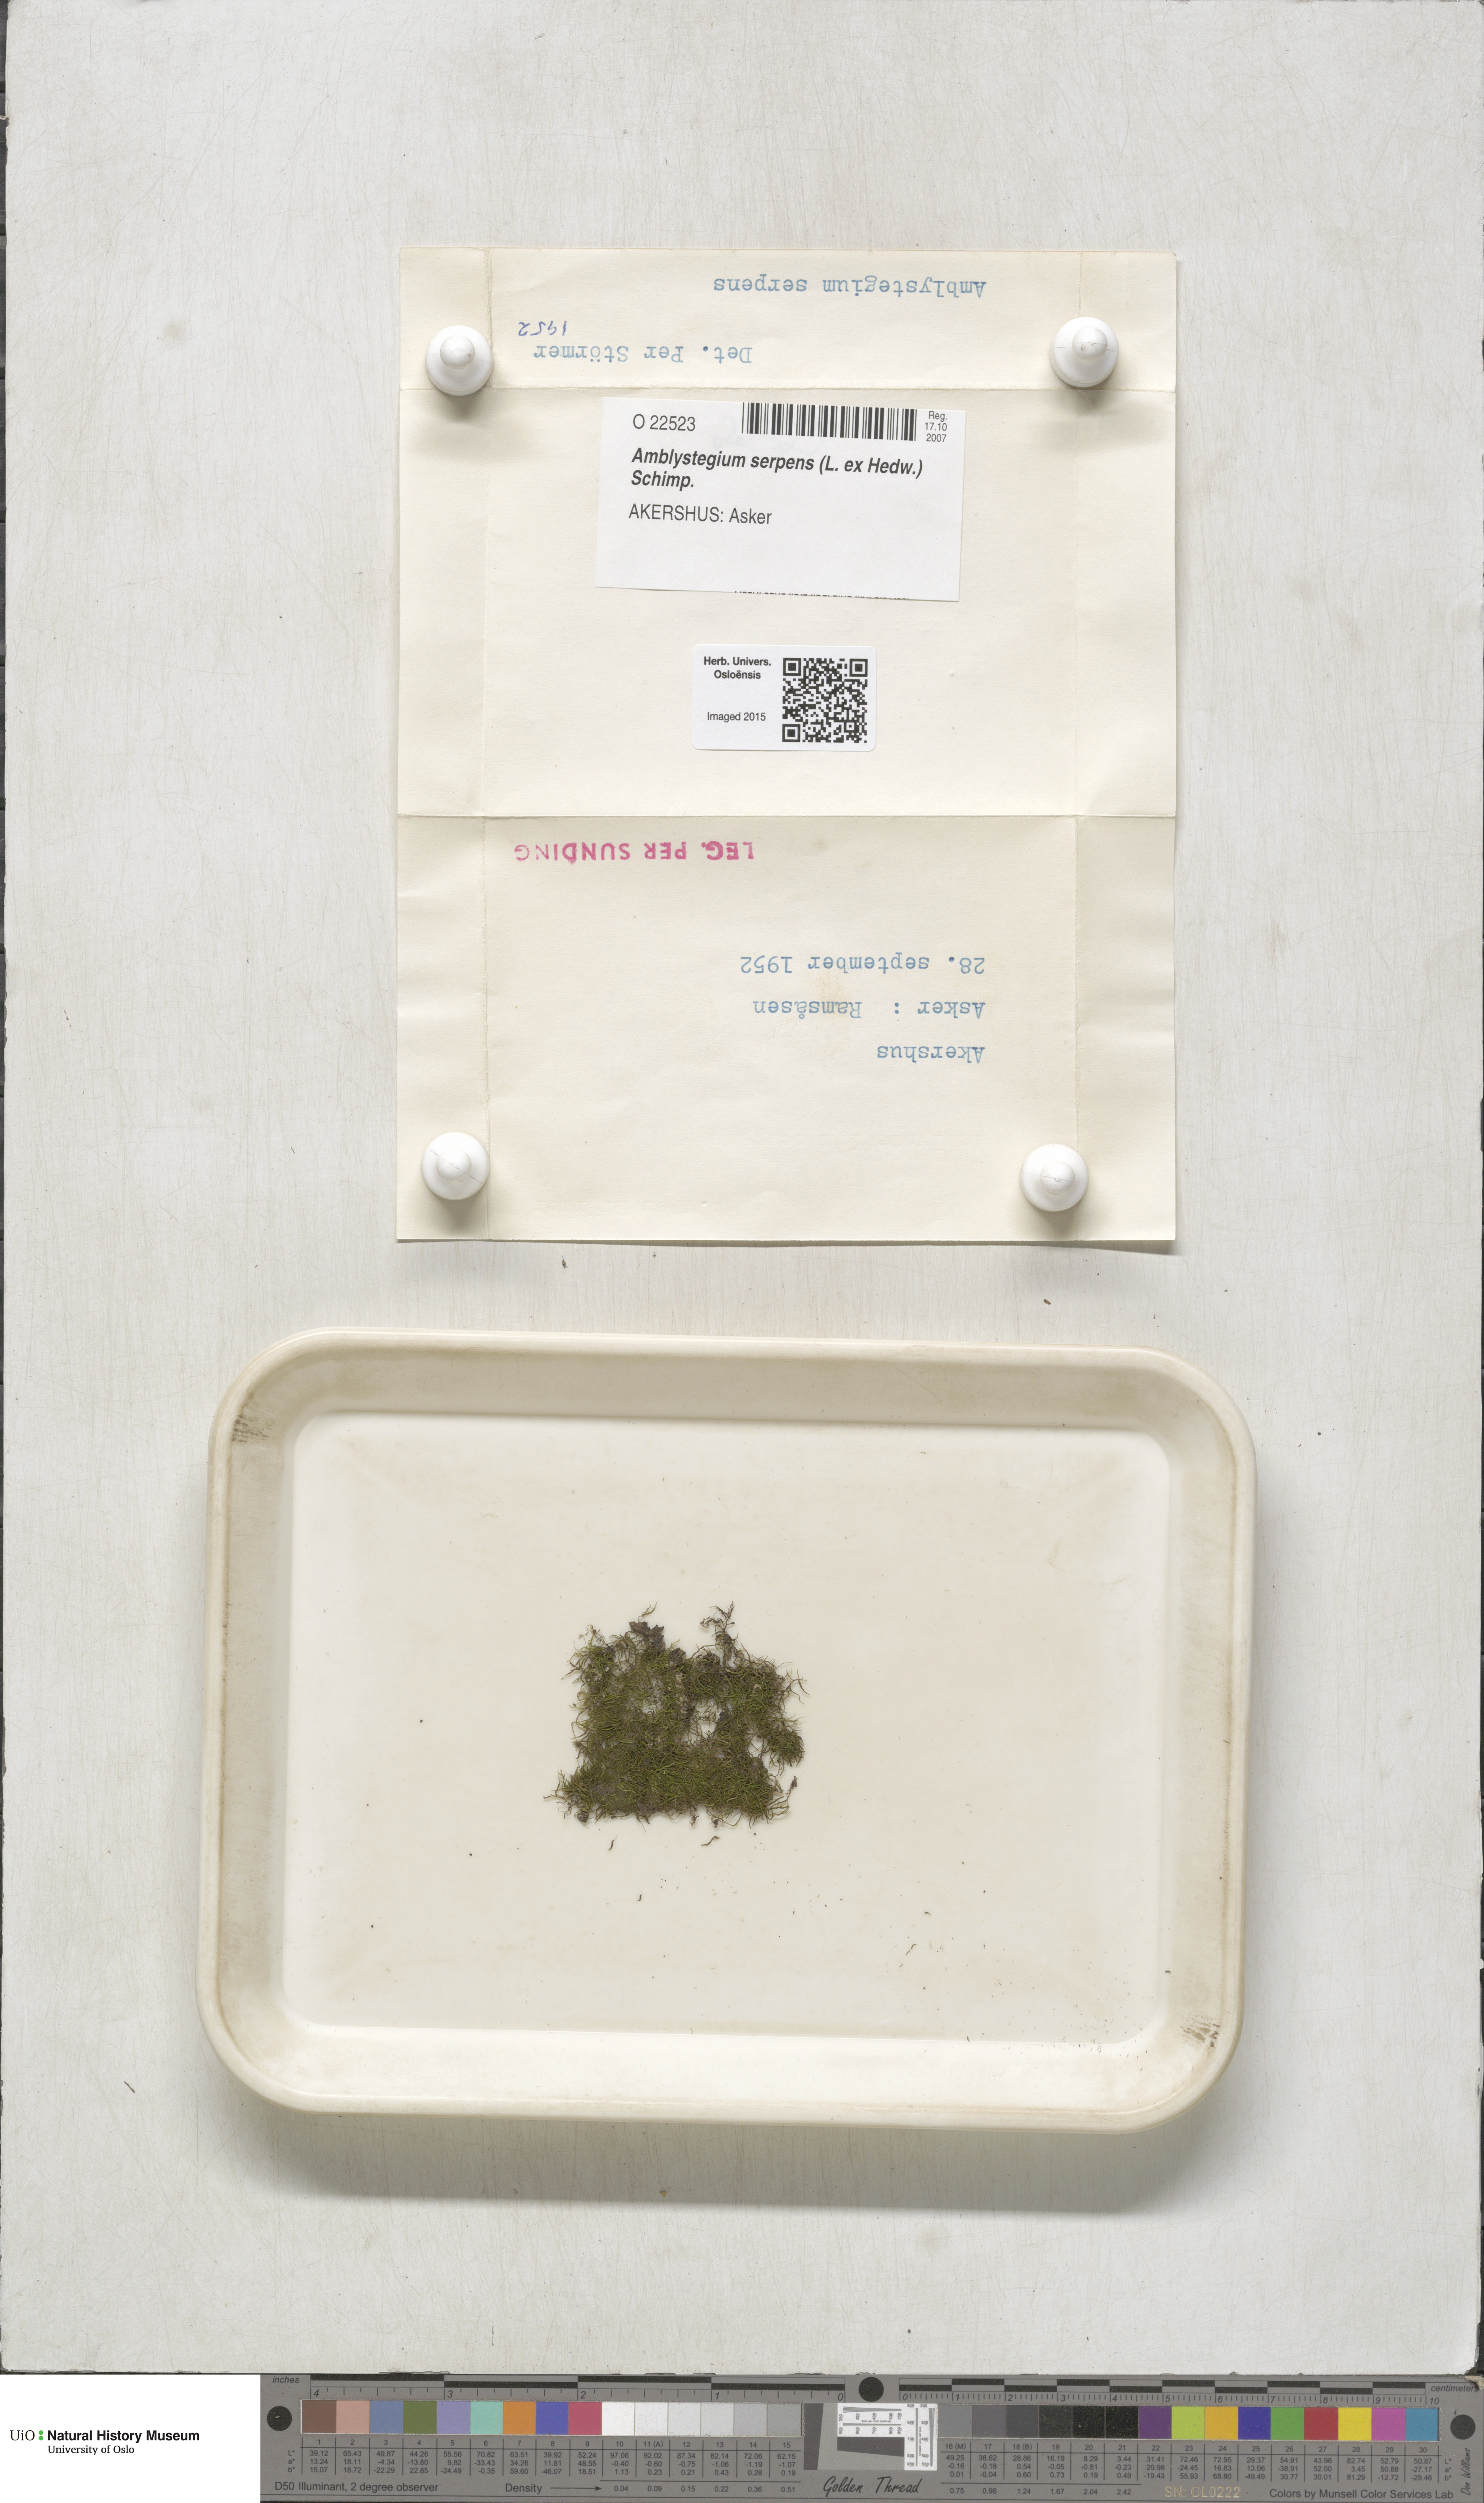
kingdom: Plantae
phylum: Bryophyta
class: Bryopsida
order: Hypnales
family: Amblystegiaceae
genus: Amblystegium
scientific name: Amblystegium serpens
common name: Jurkatzka's feather moss
